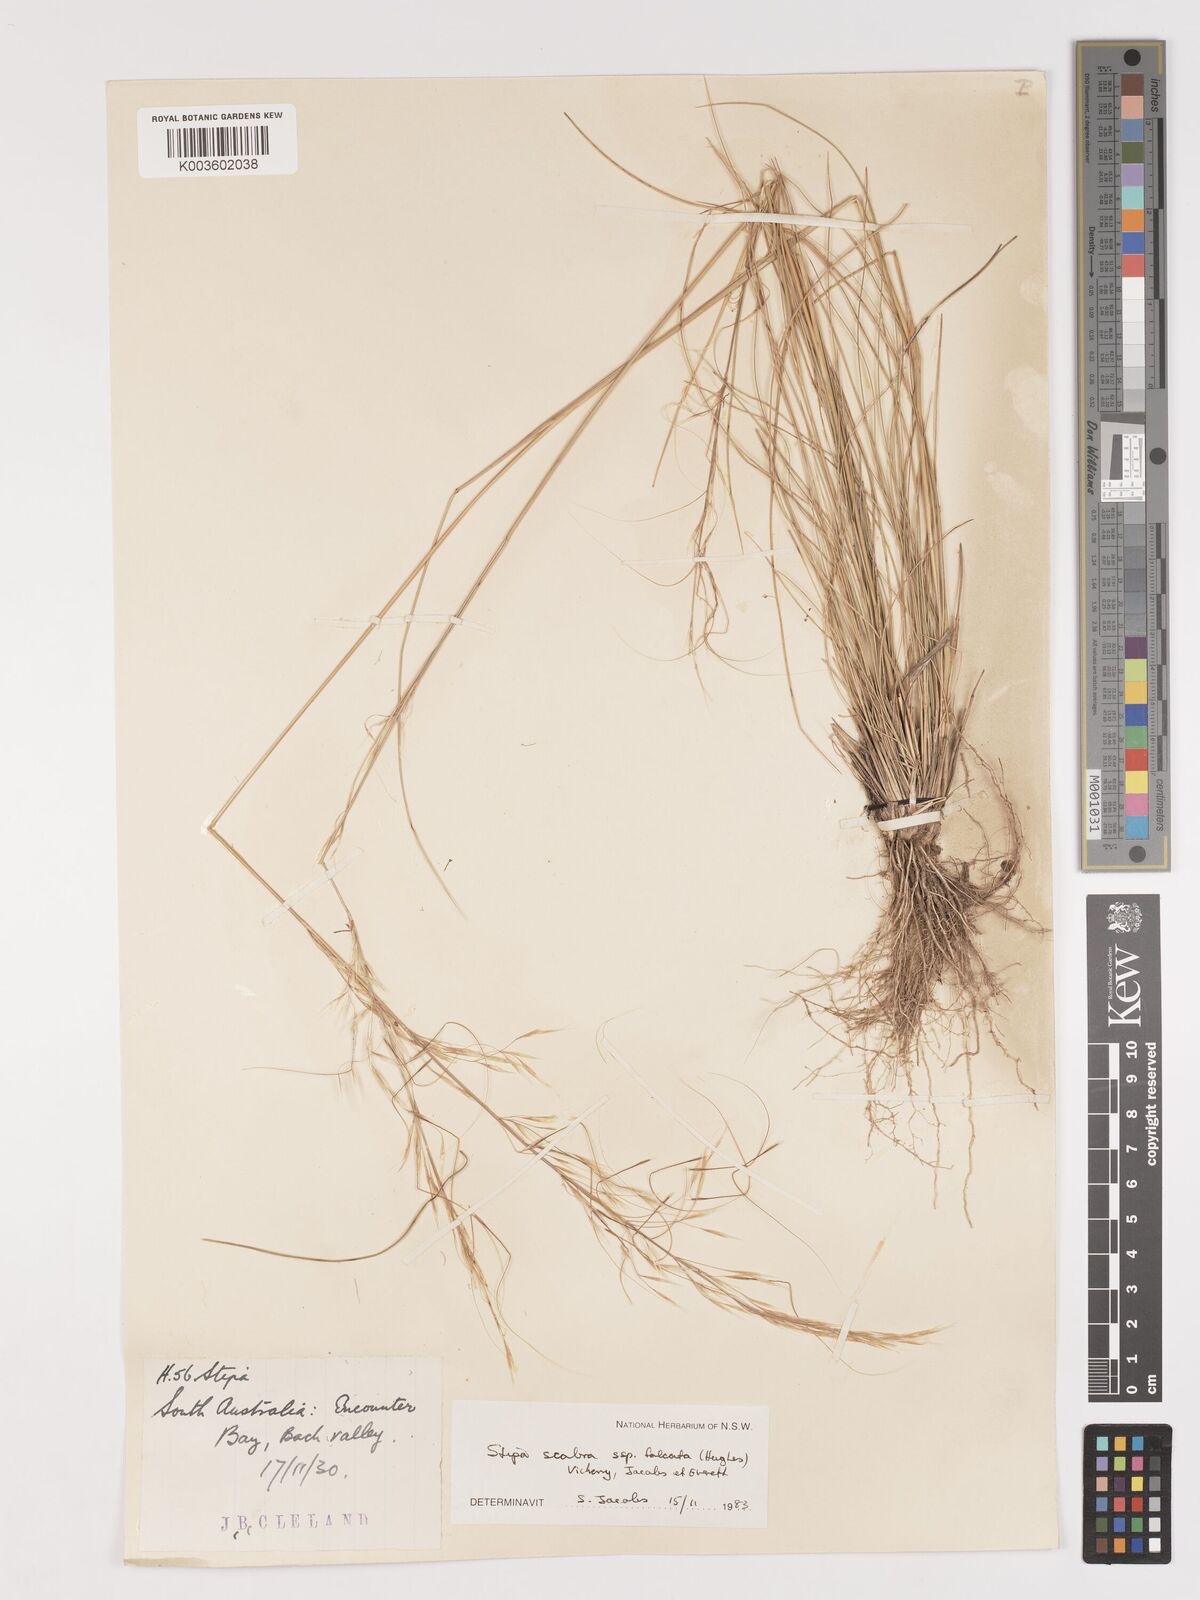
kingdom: Plantae
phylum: Tracheophyta
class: Liliopsida
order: Poales
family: Poaceae
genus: Austrostipa
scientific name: Austrostipa scabra
